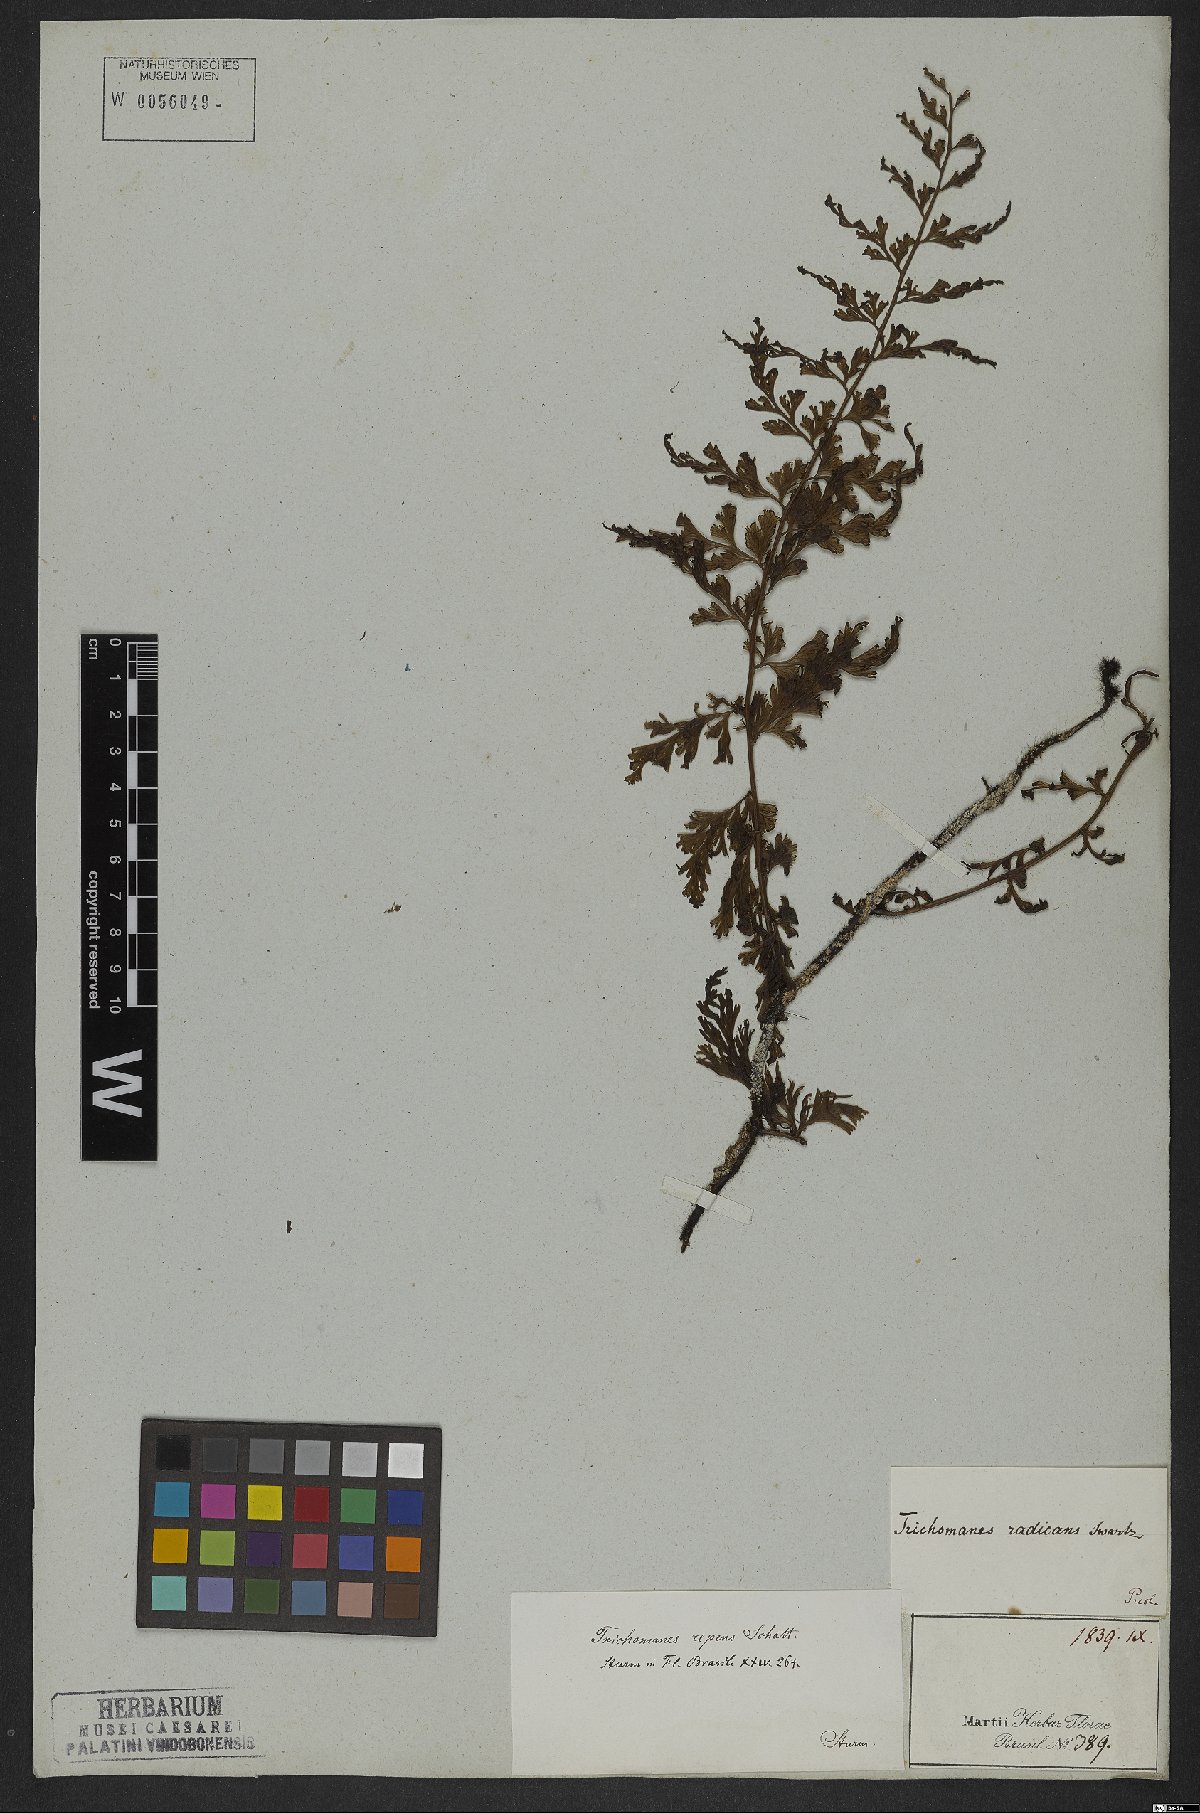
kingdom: Plantae
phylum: Tracheophyta
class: Polypodiopsida
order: Hymenophyllales
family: Hymenophyllaceae
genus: Vandenboschia
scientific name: Vandenboschia radicans
